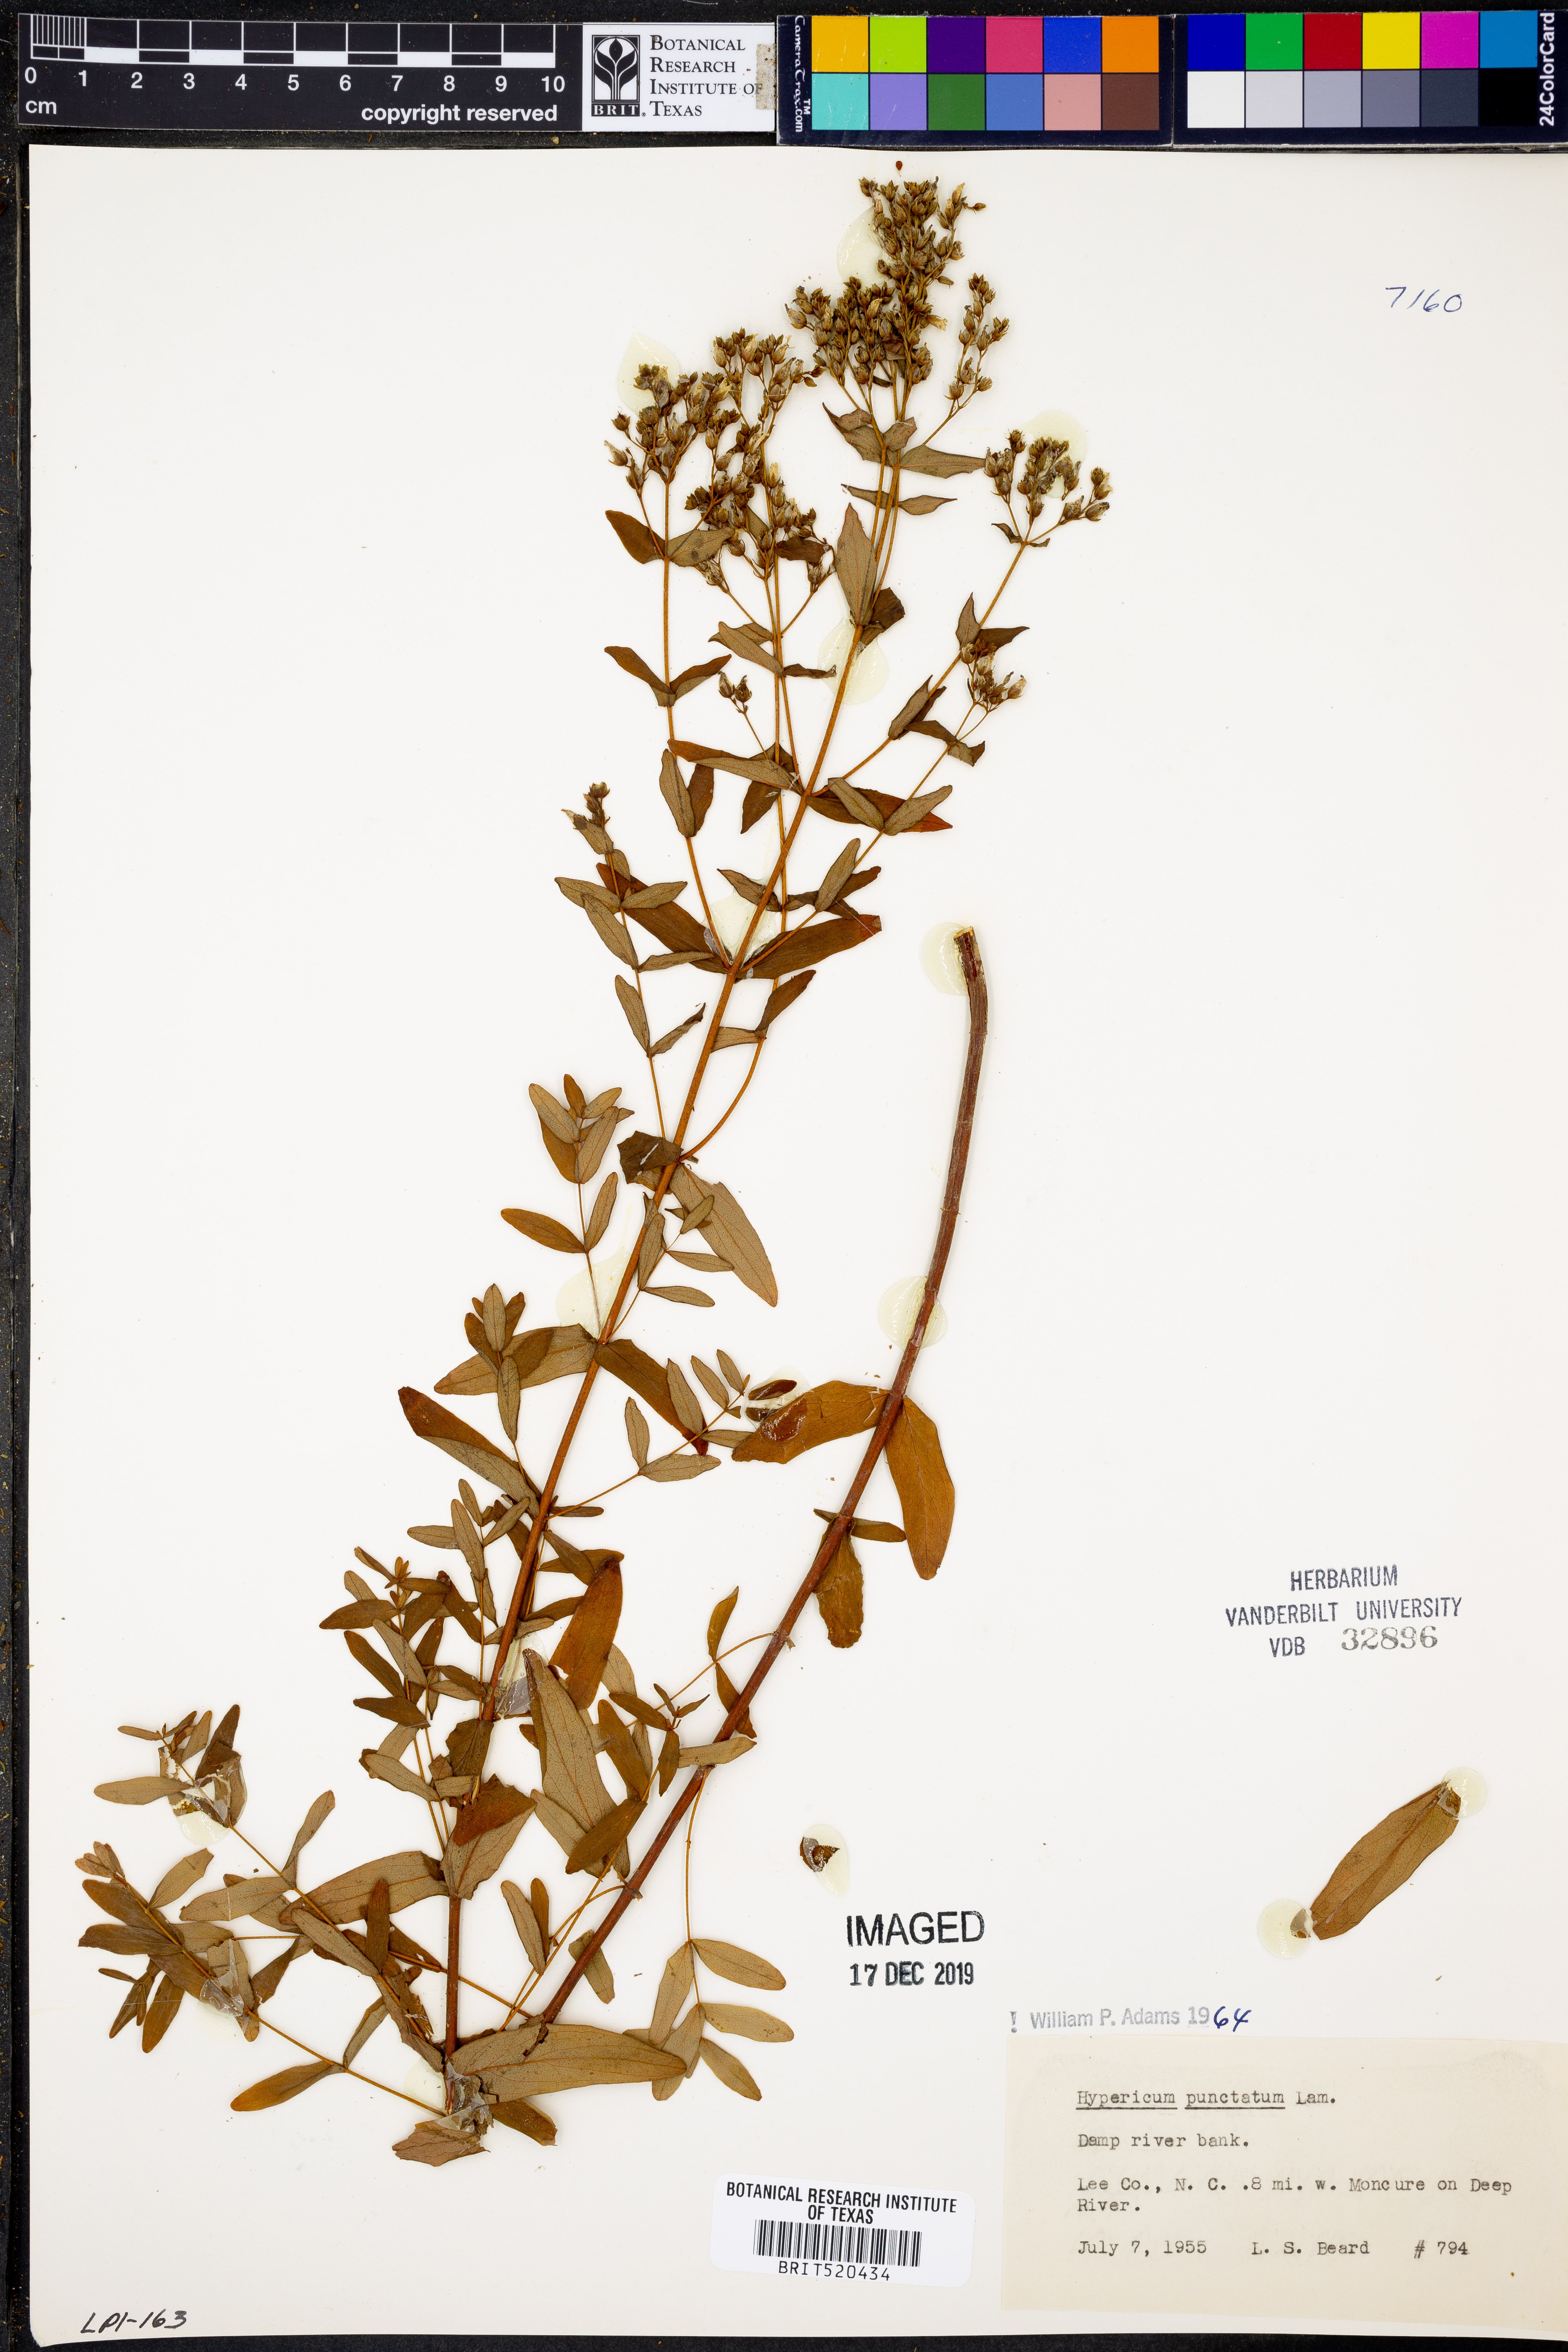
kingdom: Plantae
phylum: Tracheophyta
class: Magnoliopsida
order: Malpighiales
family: Hypericaceae
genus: Hypericum
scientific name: Hypericum punctatum
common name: Spotted st. john's-wort
